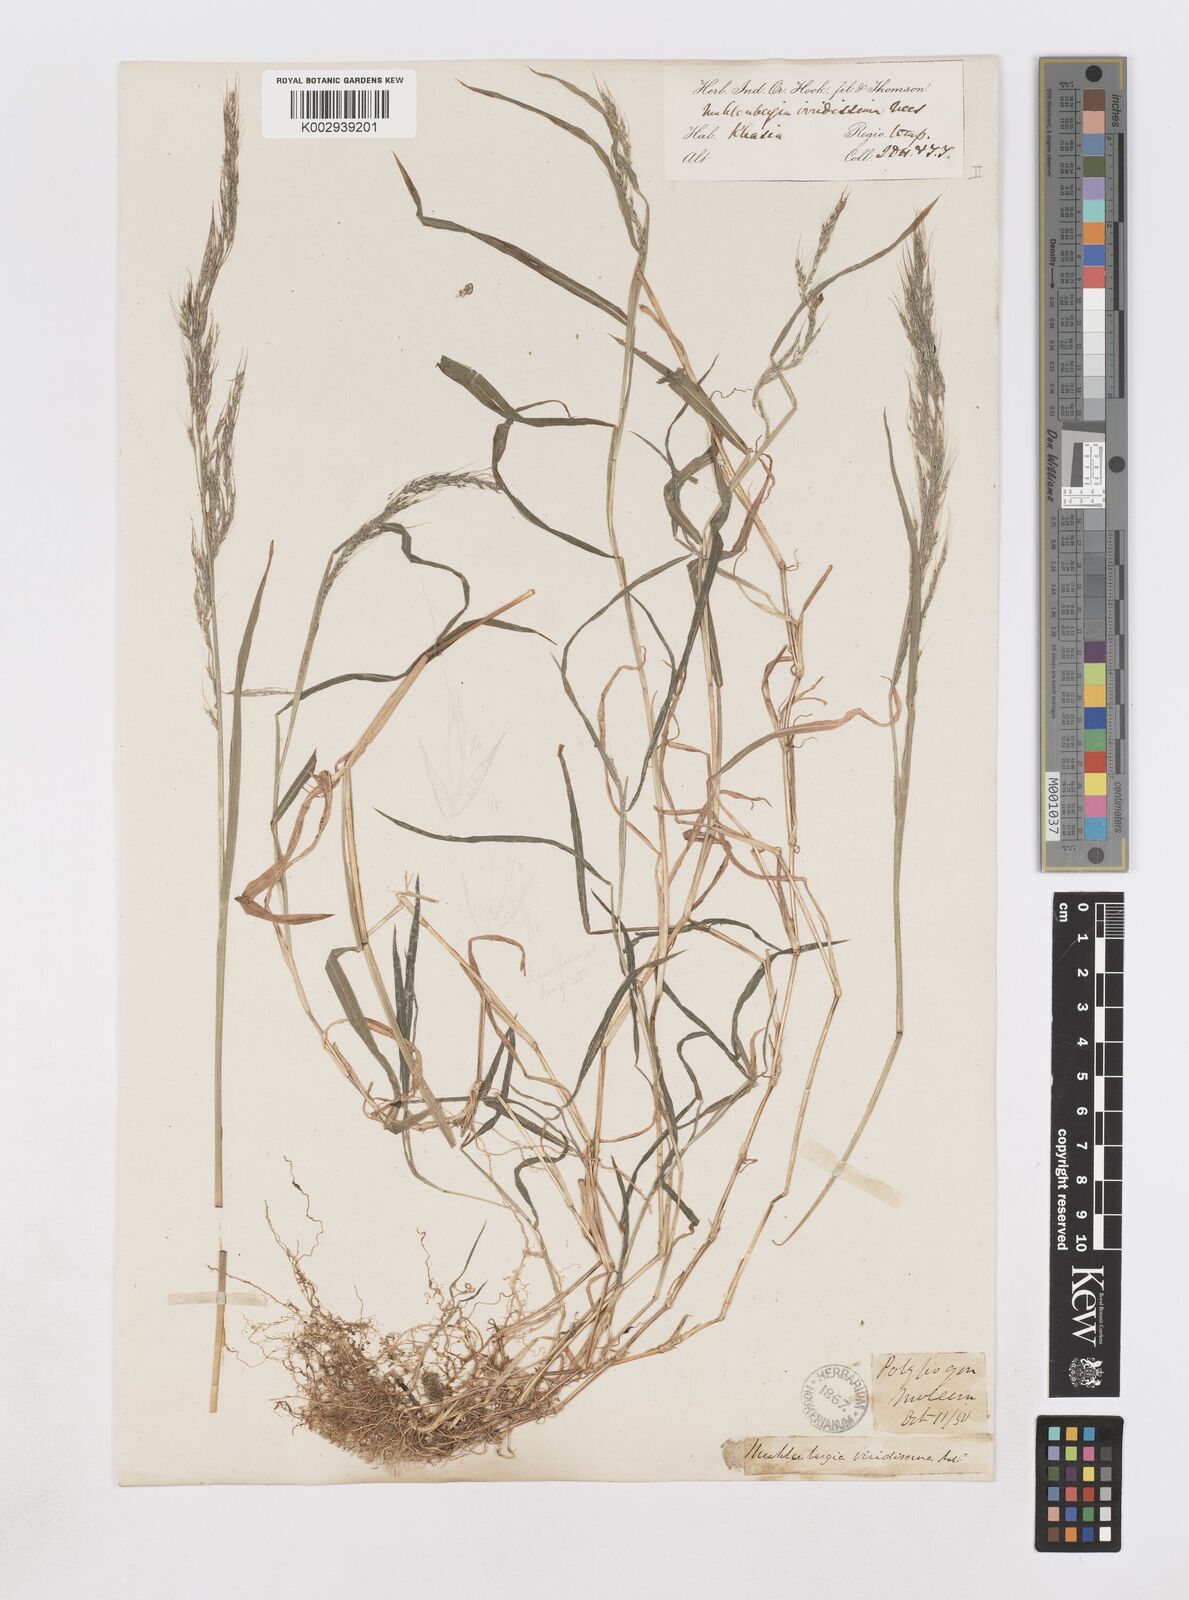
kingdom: Plantae
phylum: Tracheophyta
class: Liliopsida
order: Poales
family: Poaceae
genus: Muhlenbergia
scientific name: Muhlenbergia huegelii
